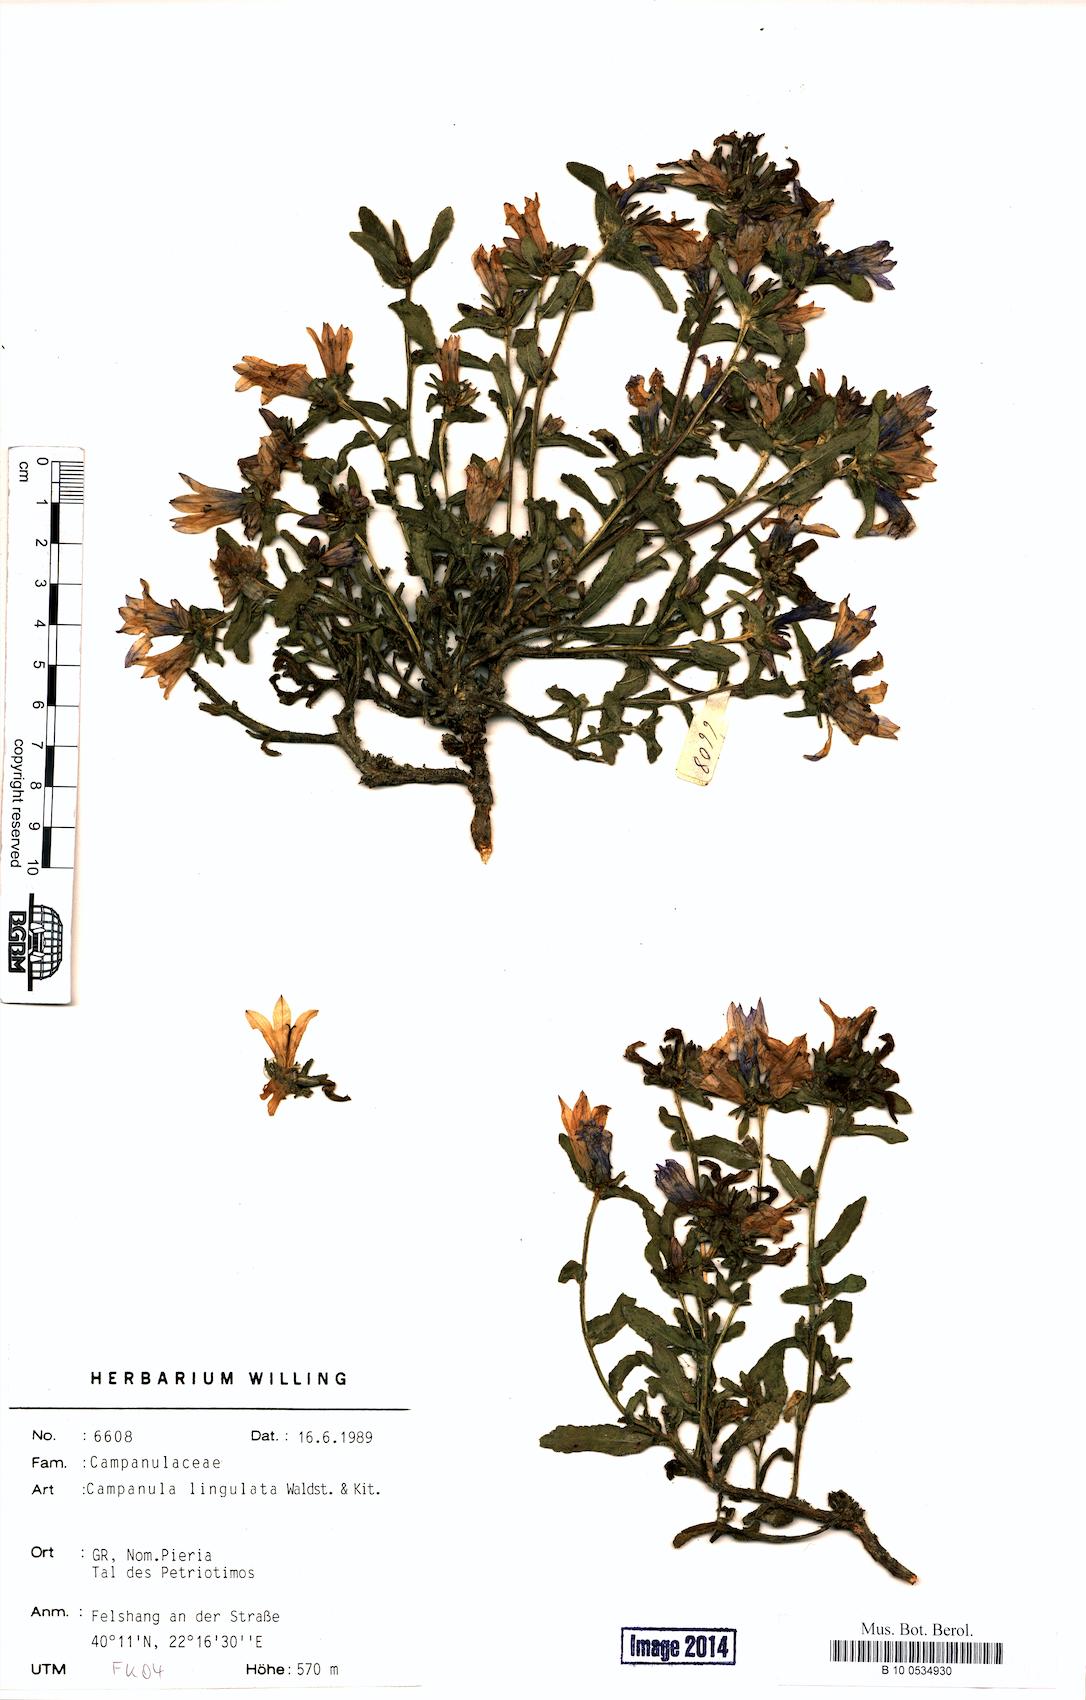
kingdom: Plantae
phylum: Tracheophyta
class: Magnoliopsida
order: Asterales
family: Campanulaceae
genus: Campanula
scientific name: Campanula lingulata
